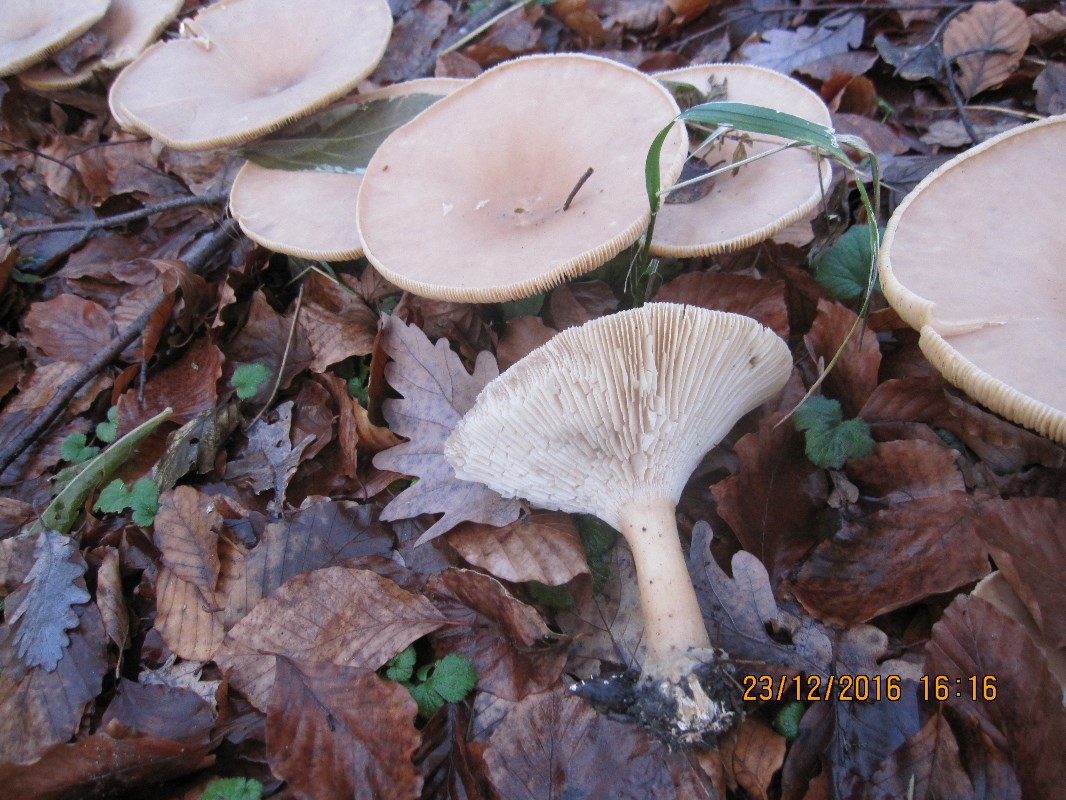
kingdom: Fungi
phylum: Basidiomycota
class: Agaricomycetes
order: Agaricales
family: Tricholomataceae
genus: Infundibulicybe
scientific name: Infundibulicybe geotropa
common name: stor tragthat
